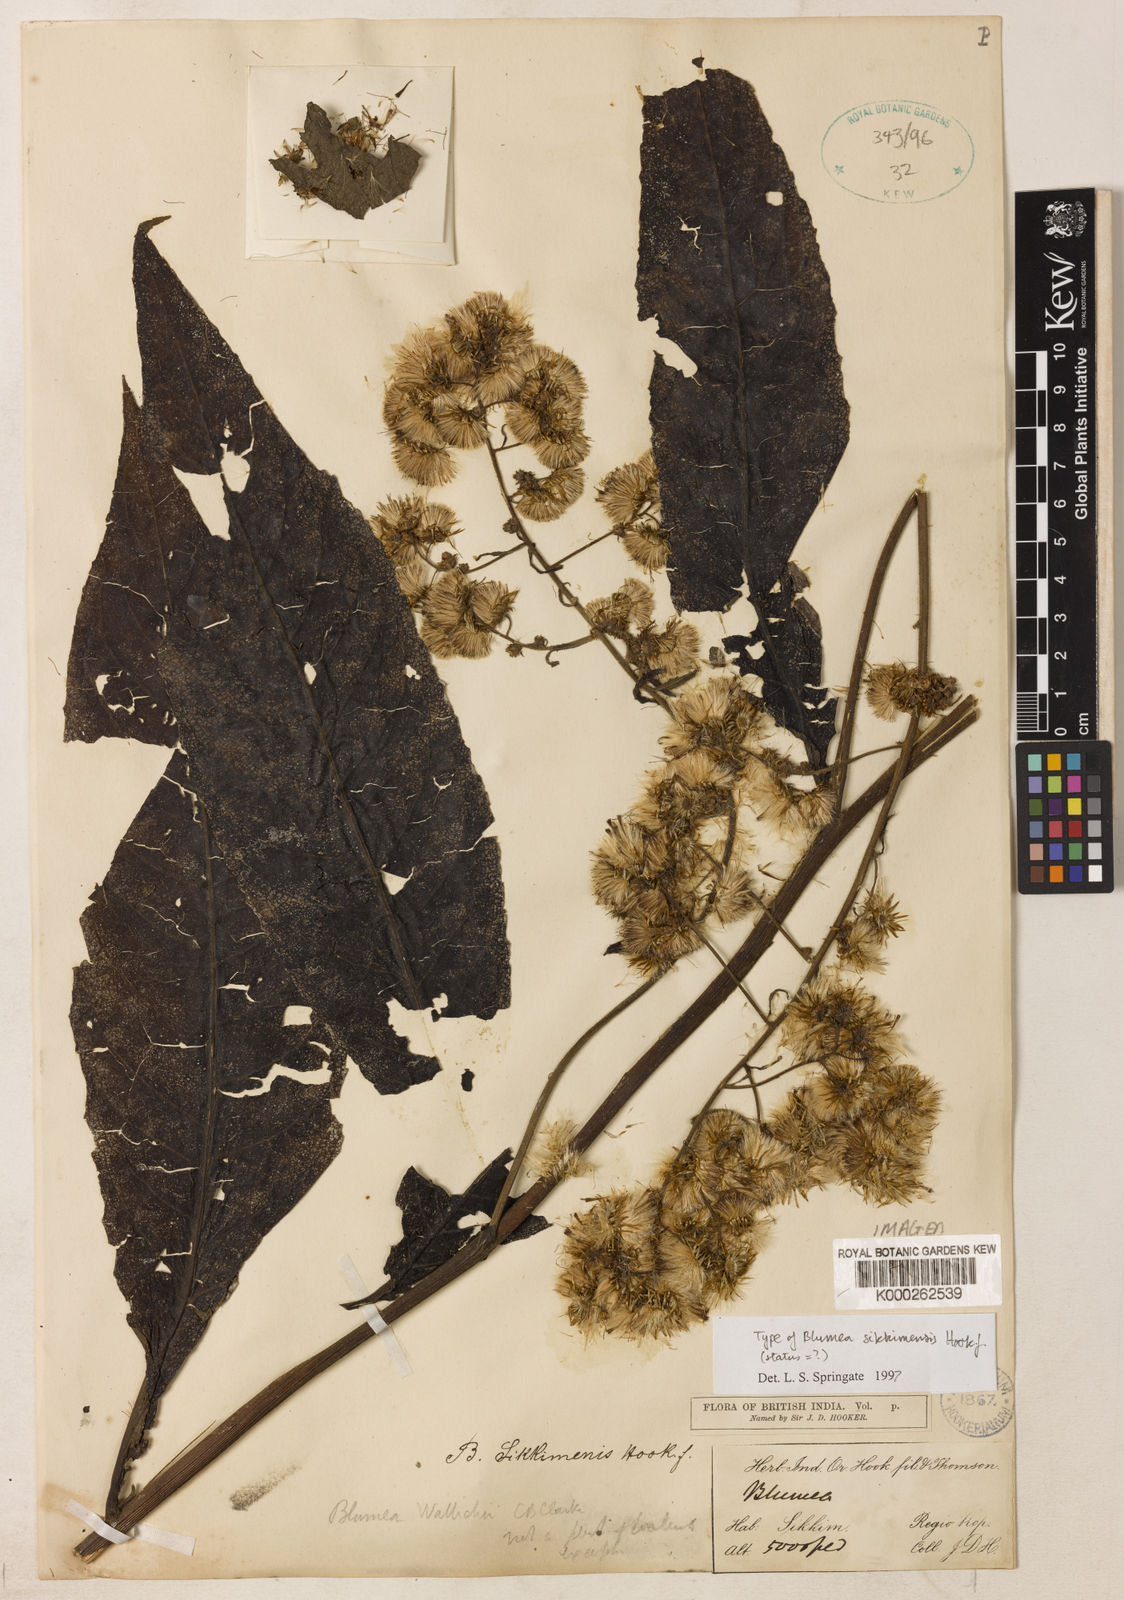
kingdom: Plantae
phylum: Tracheophyta
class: Magnoliopsida
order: Asterales
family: Asteraceae
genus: Blumea
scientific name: Blumea lanceolaria
